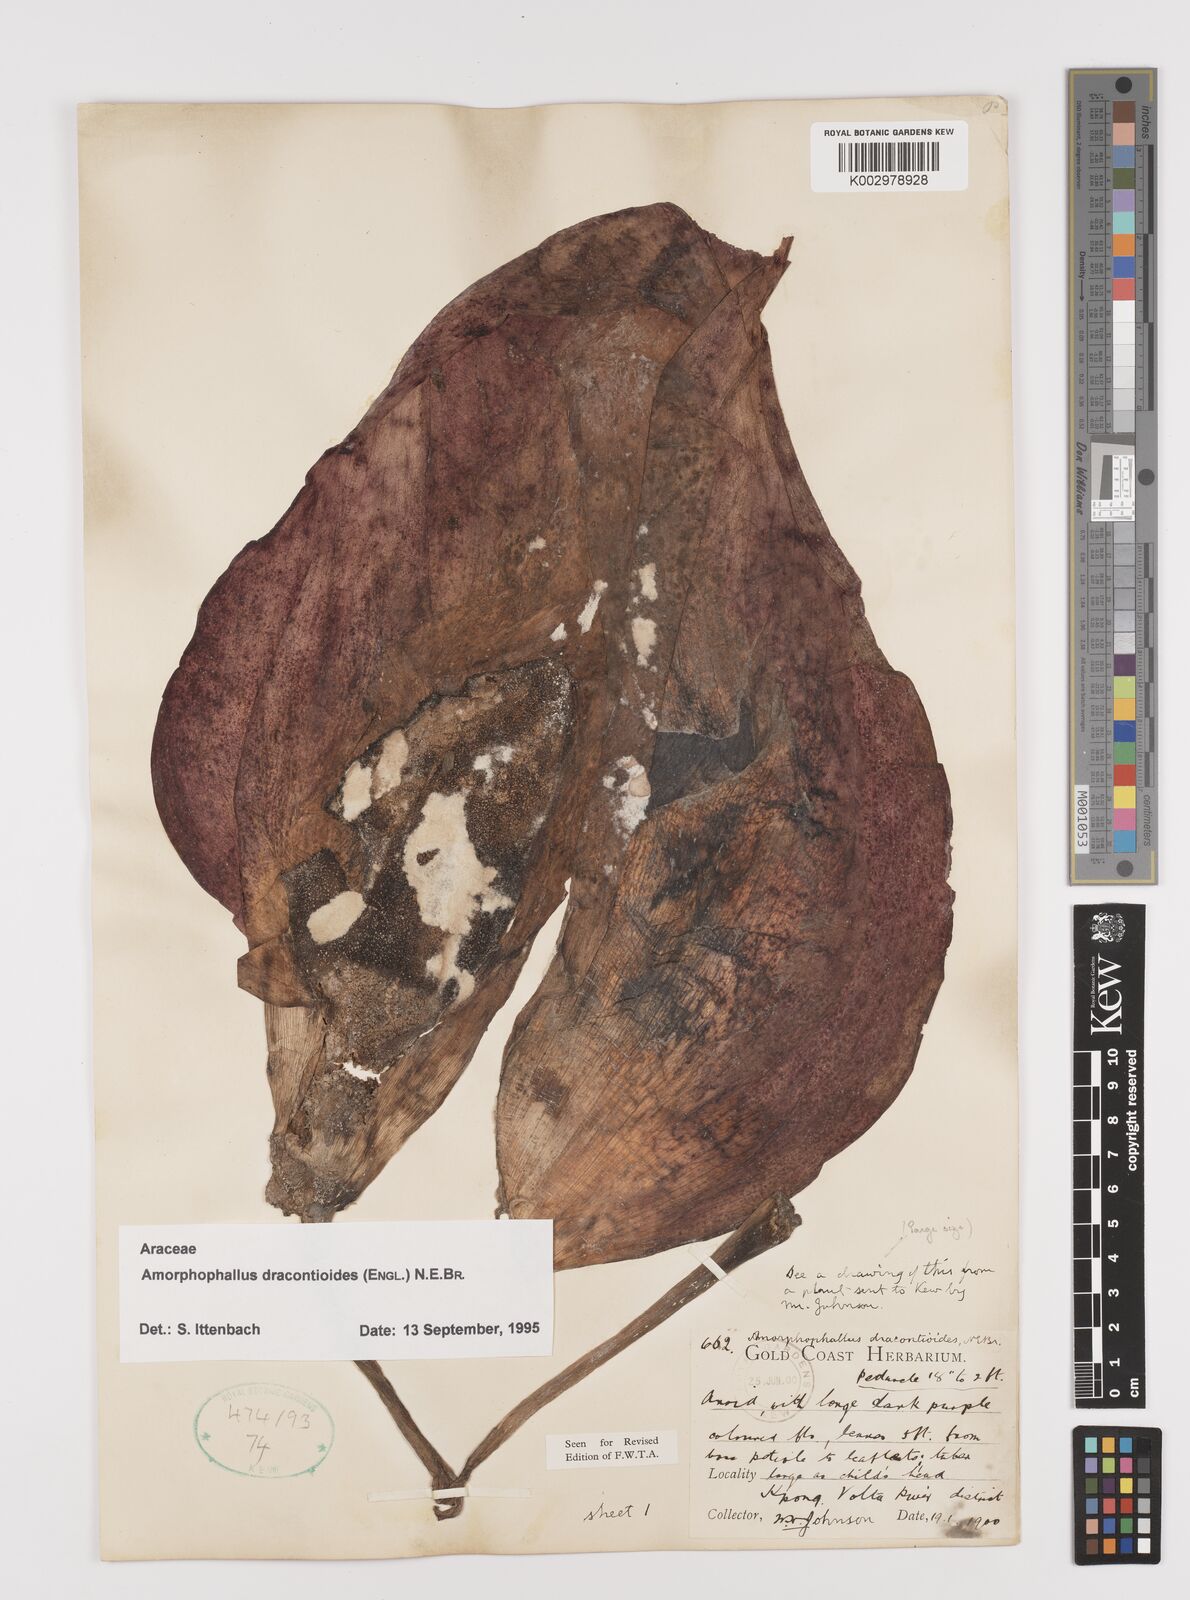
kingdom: Plantae
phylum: Tracheophyta
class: Liliopsida
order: Alismatales
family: Araceae
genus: Amorphophallus
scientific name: Amorphophallus dracontioides
